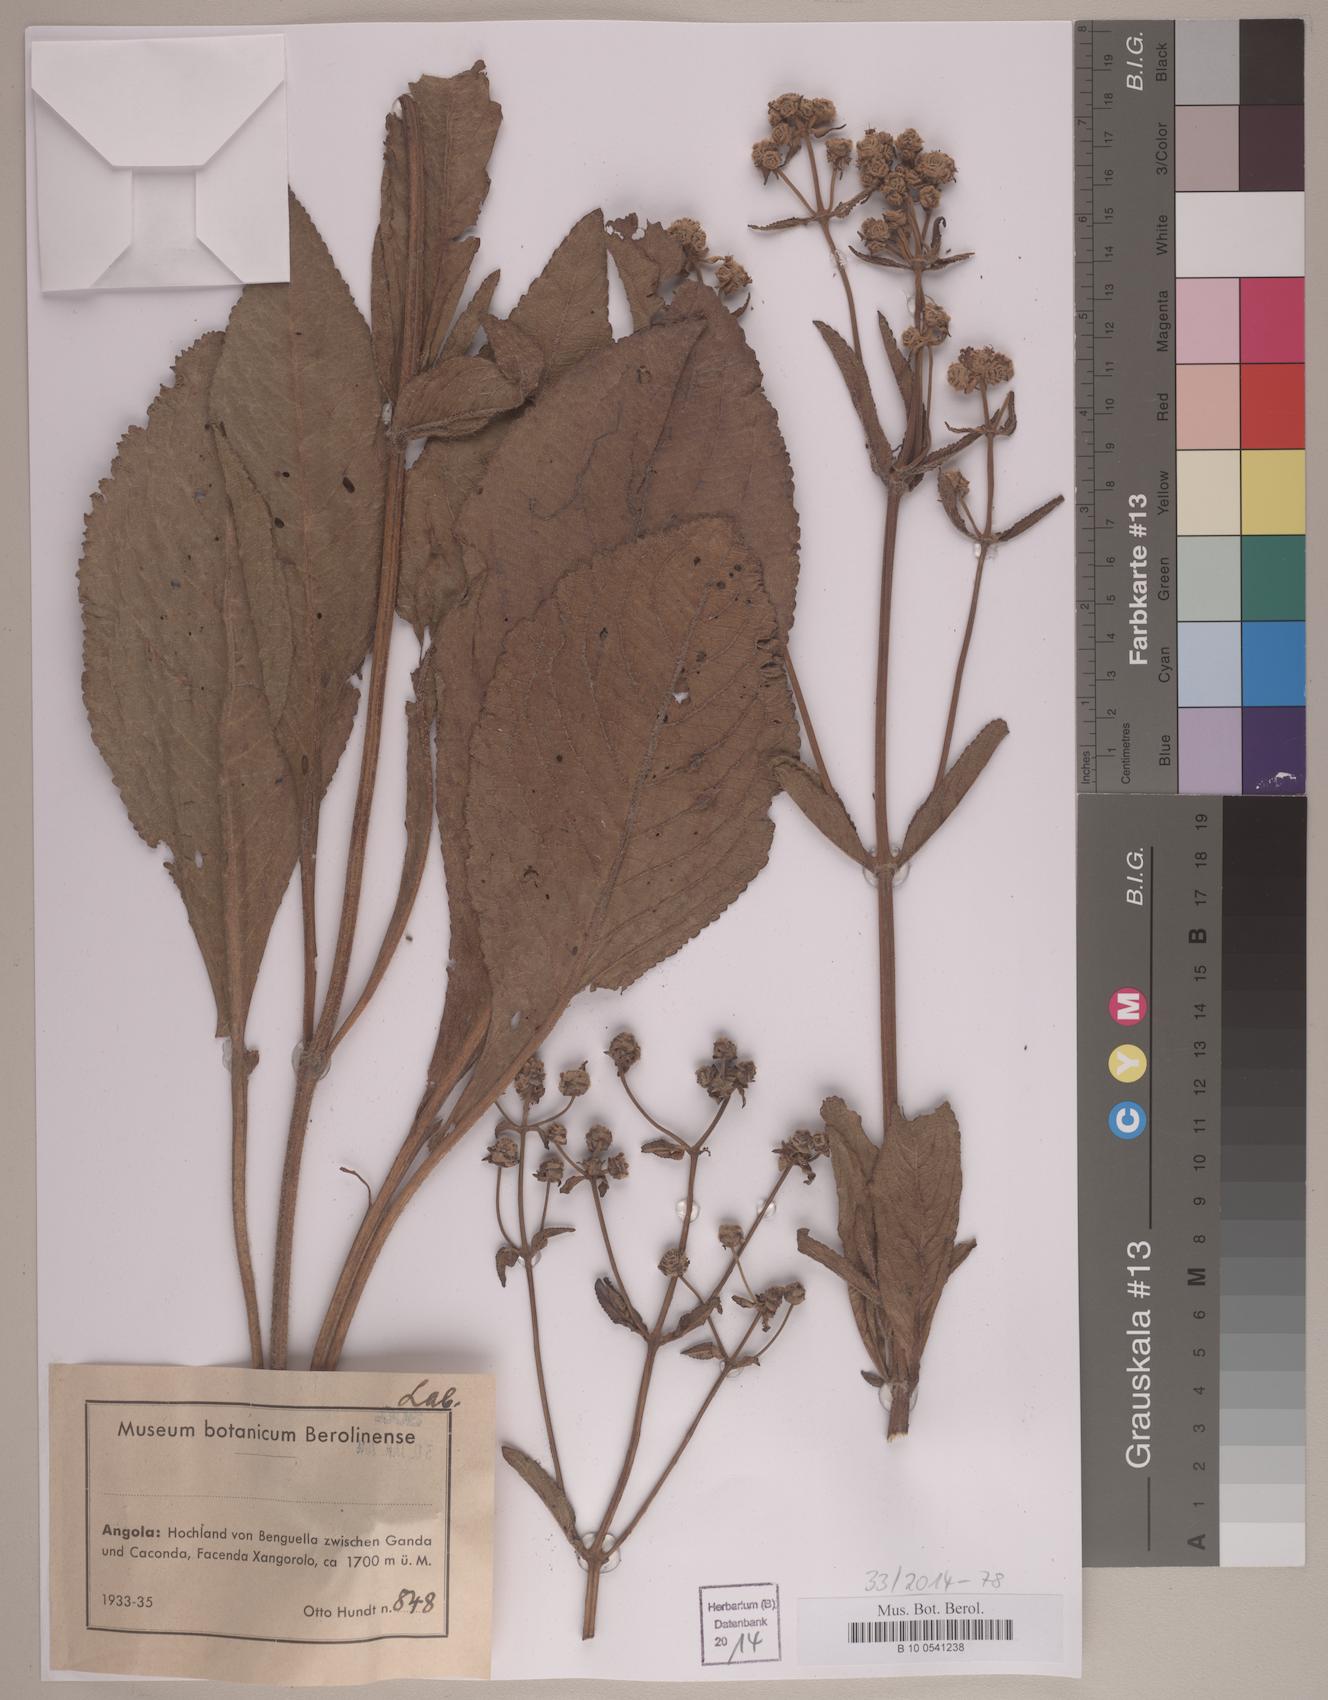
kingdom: Plantae
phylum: Tracheophyta
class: Magnoliopsida
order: Lamiales
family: Lamiaceae
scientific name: Lamiaceae
